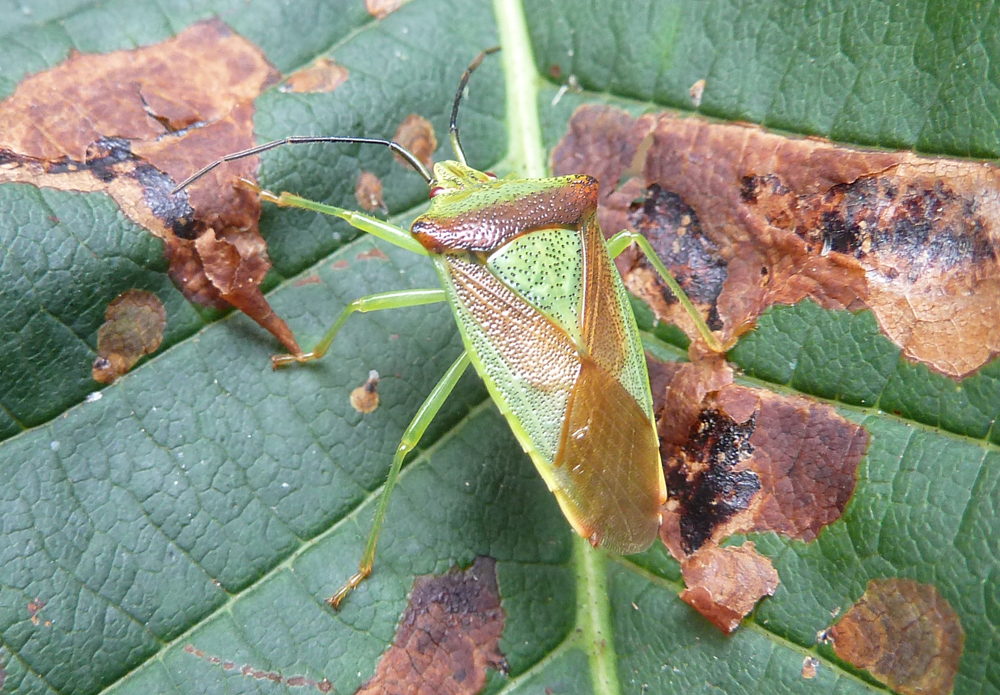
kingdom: Animalia
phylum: Arthropoda
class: Insecta
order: Hemiptera
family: Acanthosomatidae
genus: Acanthosoma
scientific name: Acanthosoma haemorrhoidale
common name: Hawthorn shieldbug
